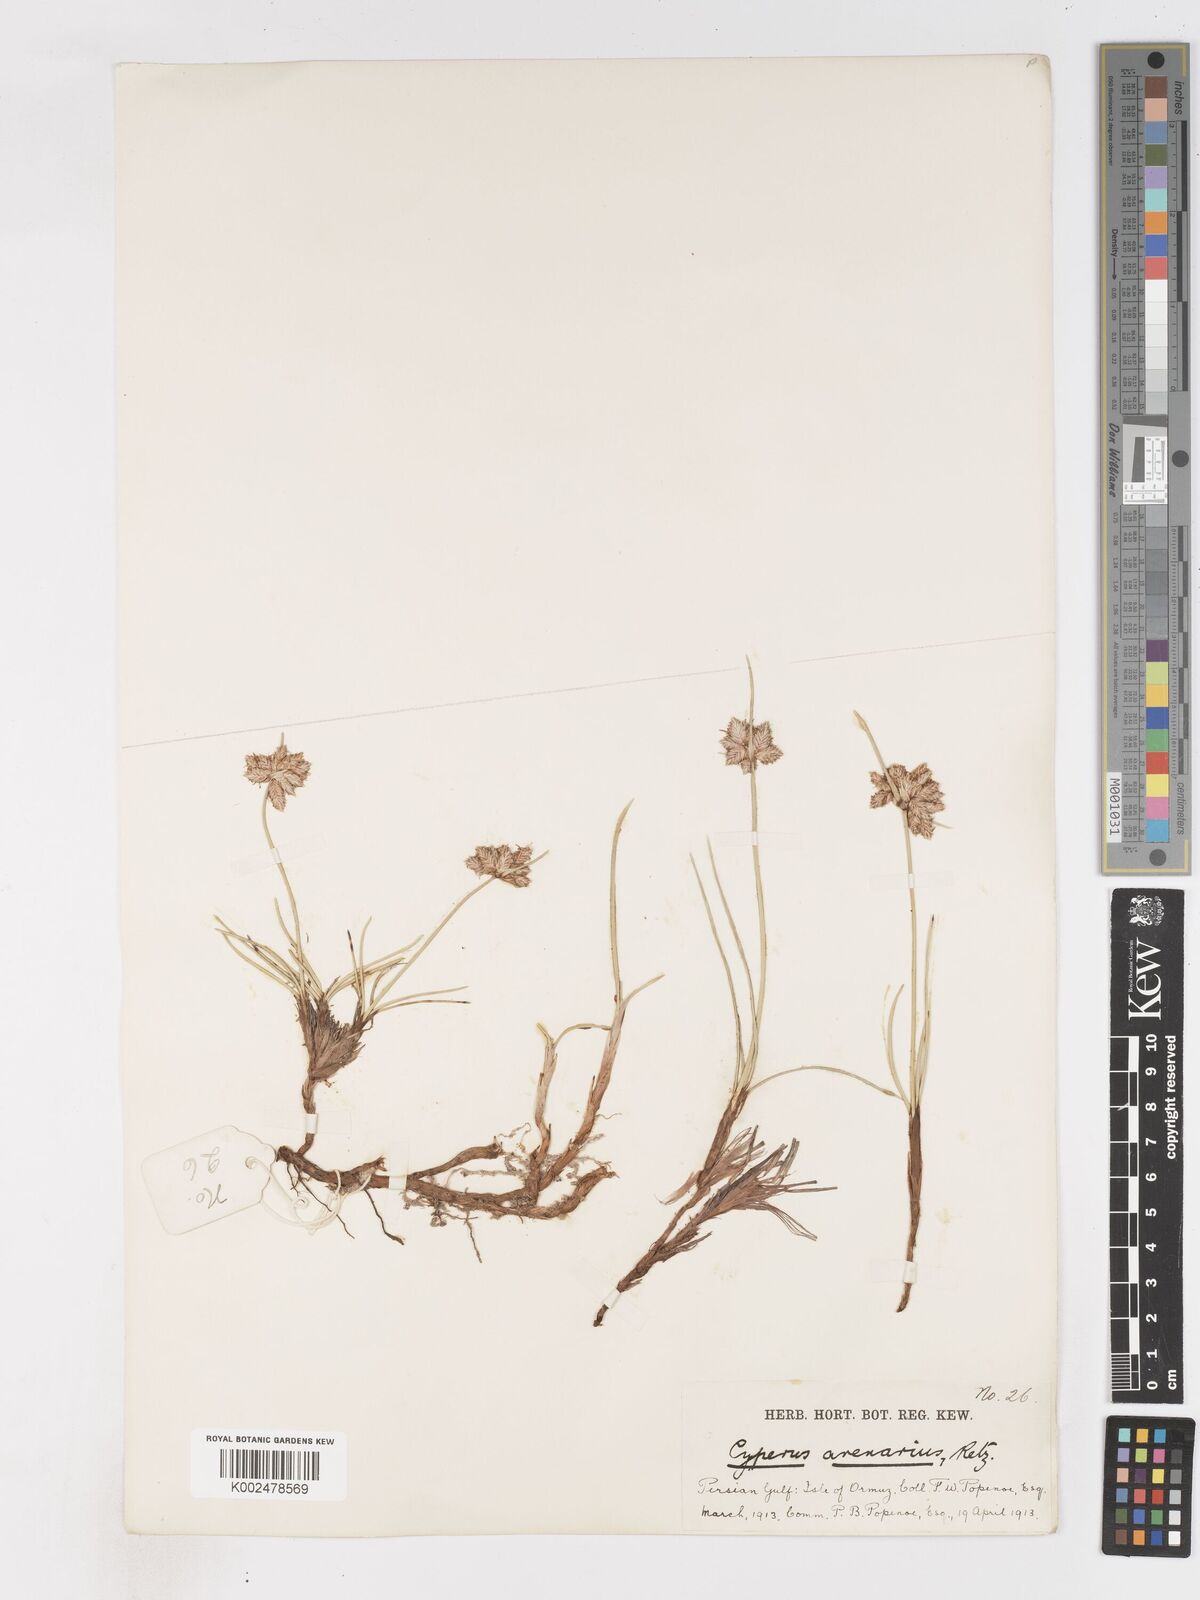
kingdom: Plantae
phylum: Tracheophyta
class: Liliopsida
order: Poales
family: Cyperaceae
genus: Cyperus
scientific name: Cyperus arenarius
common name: Dwarf sedge
